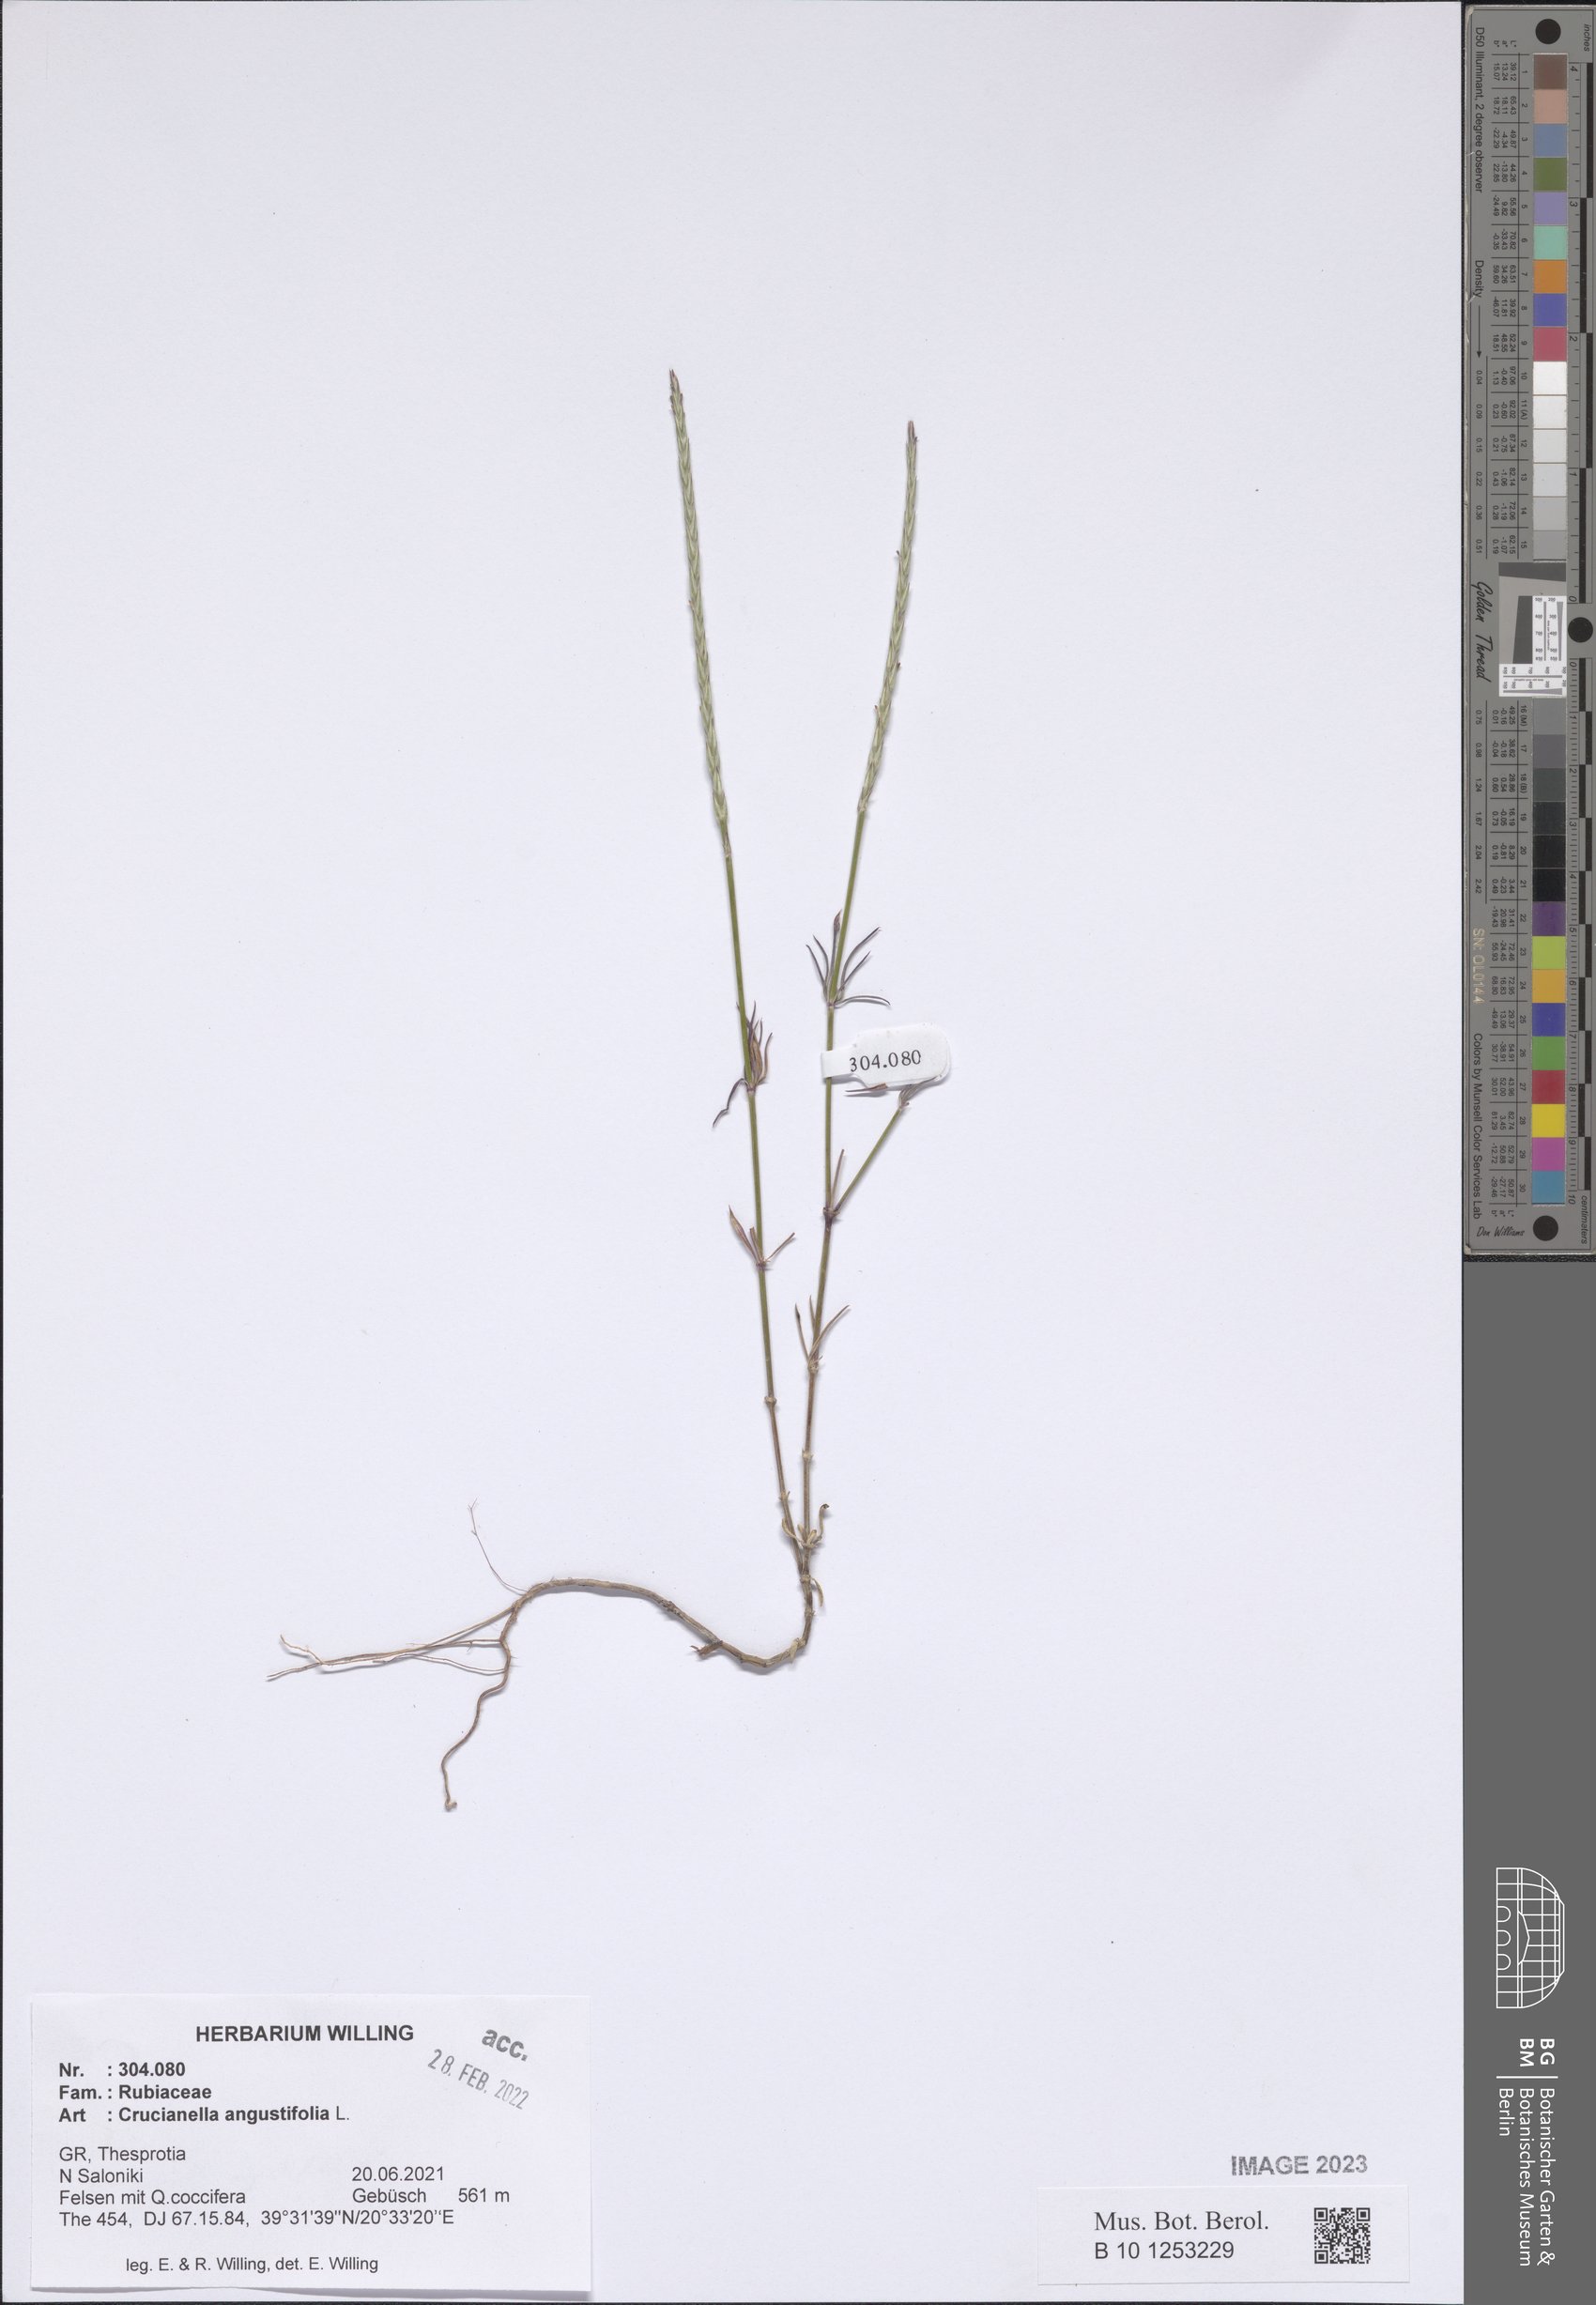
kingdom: Plantae
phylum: Tracheophyta
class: Magnoliopsida
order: Gentianales
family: Rubiaceae
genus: Crucianella
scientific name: Crucianella angustifolia
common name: Narrowleaf crucianella
